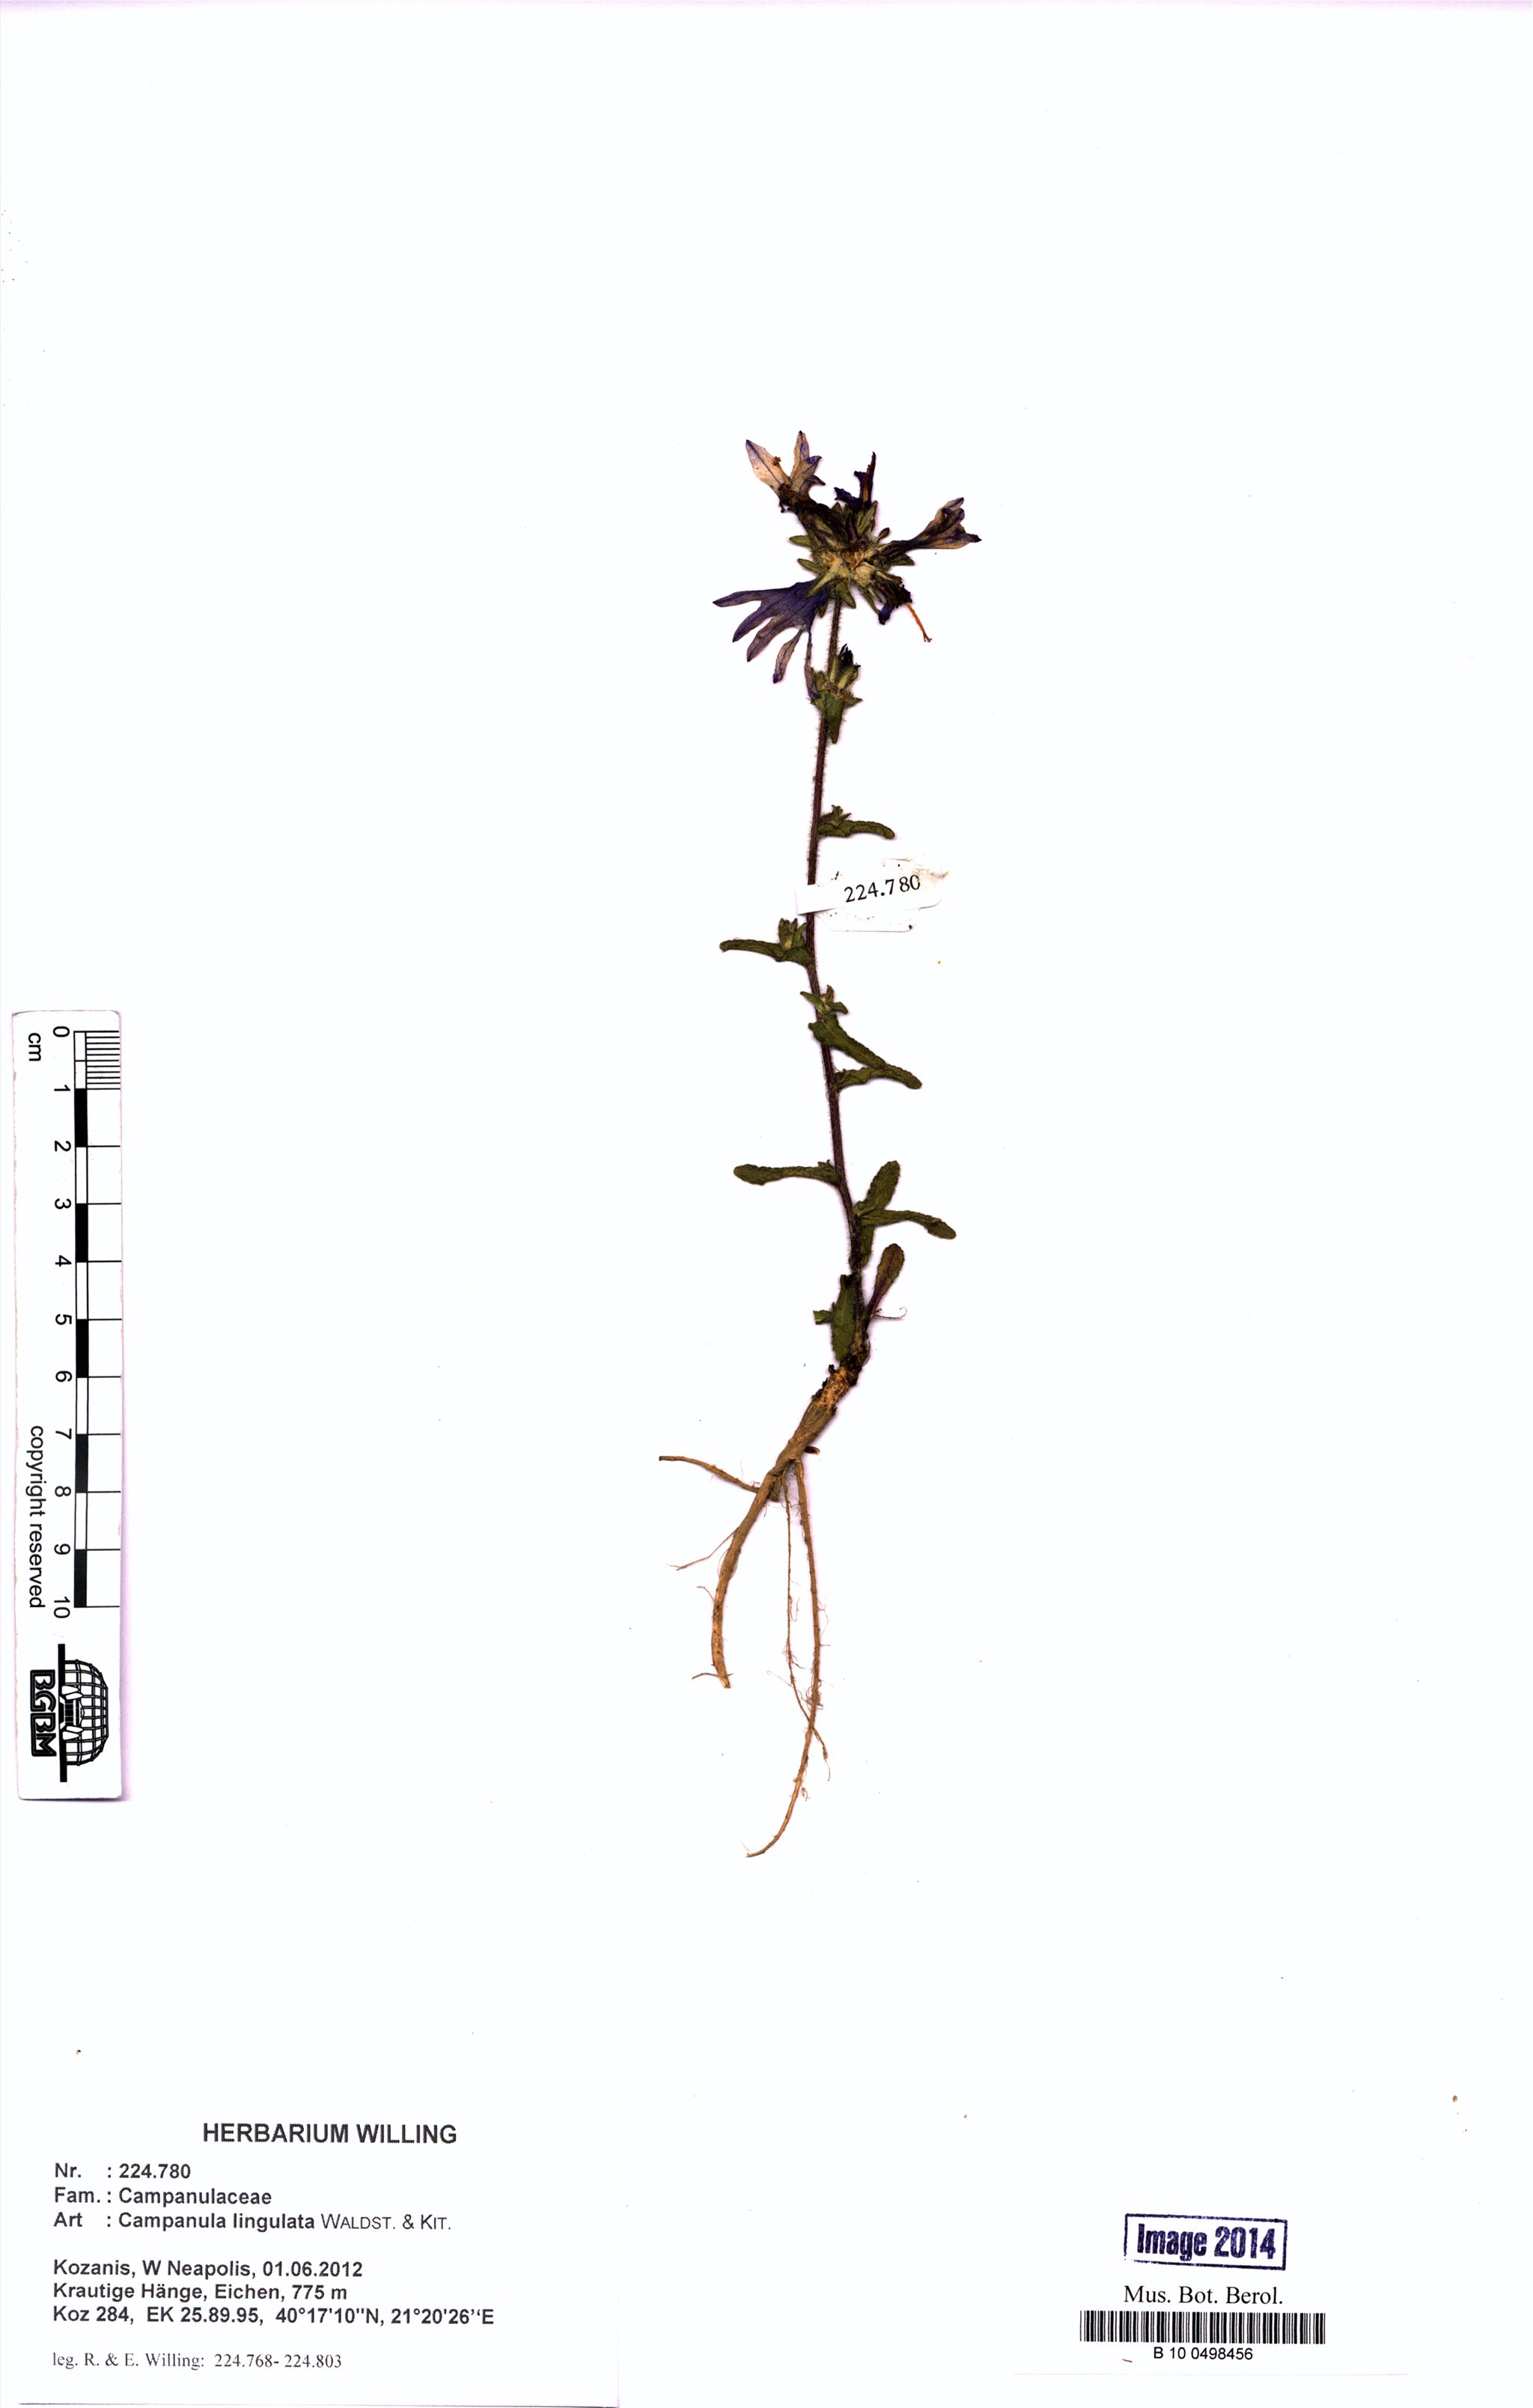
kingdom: Plantae
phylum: Tracheophyta
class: Magnoliopsida
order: Asterales
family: Campanulaceae
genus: Campanula
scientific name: Campanula lingulata
